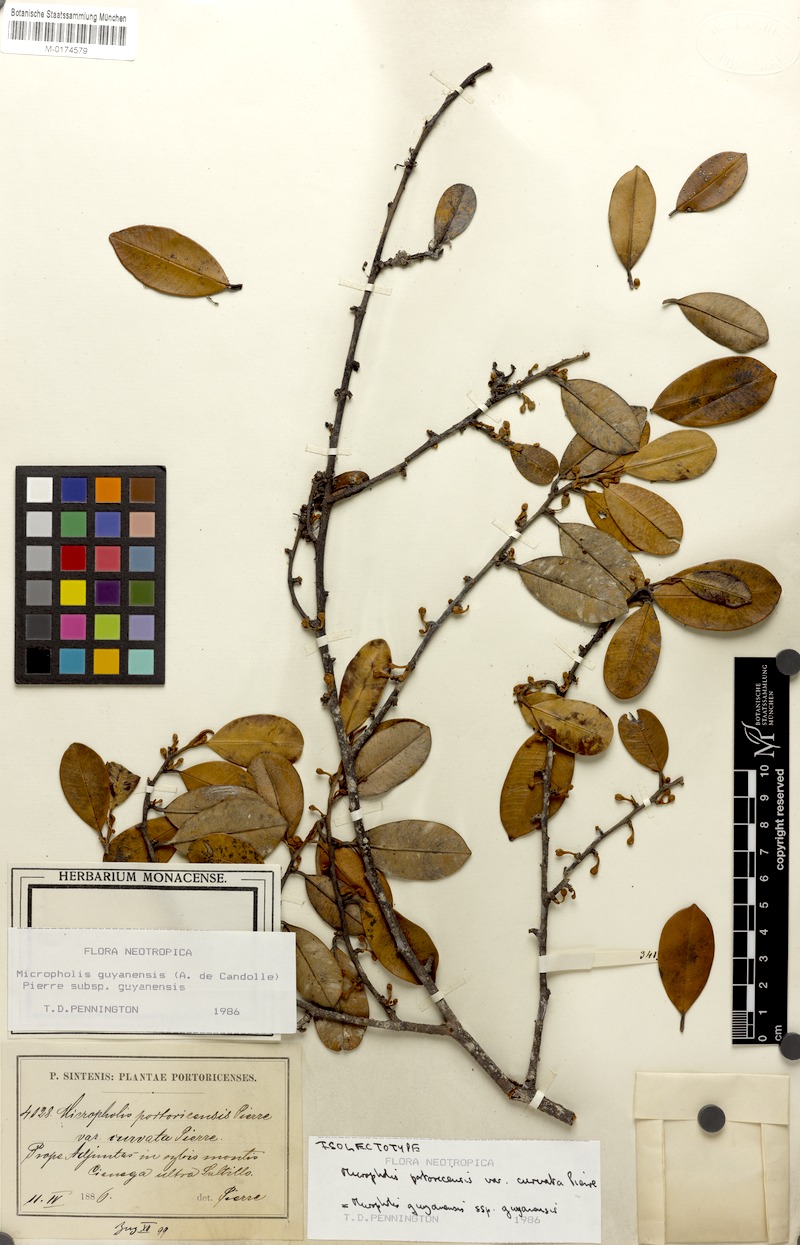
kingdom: Plantae
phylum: Tracheophyta
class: Magnoliopsida
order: Ericales
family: Sapotaceae
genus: Micropholis
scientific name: Micropholis guyanensis
